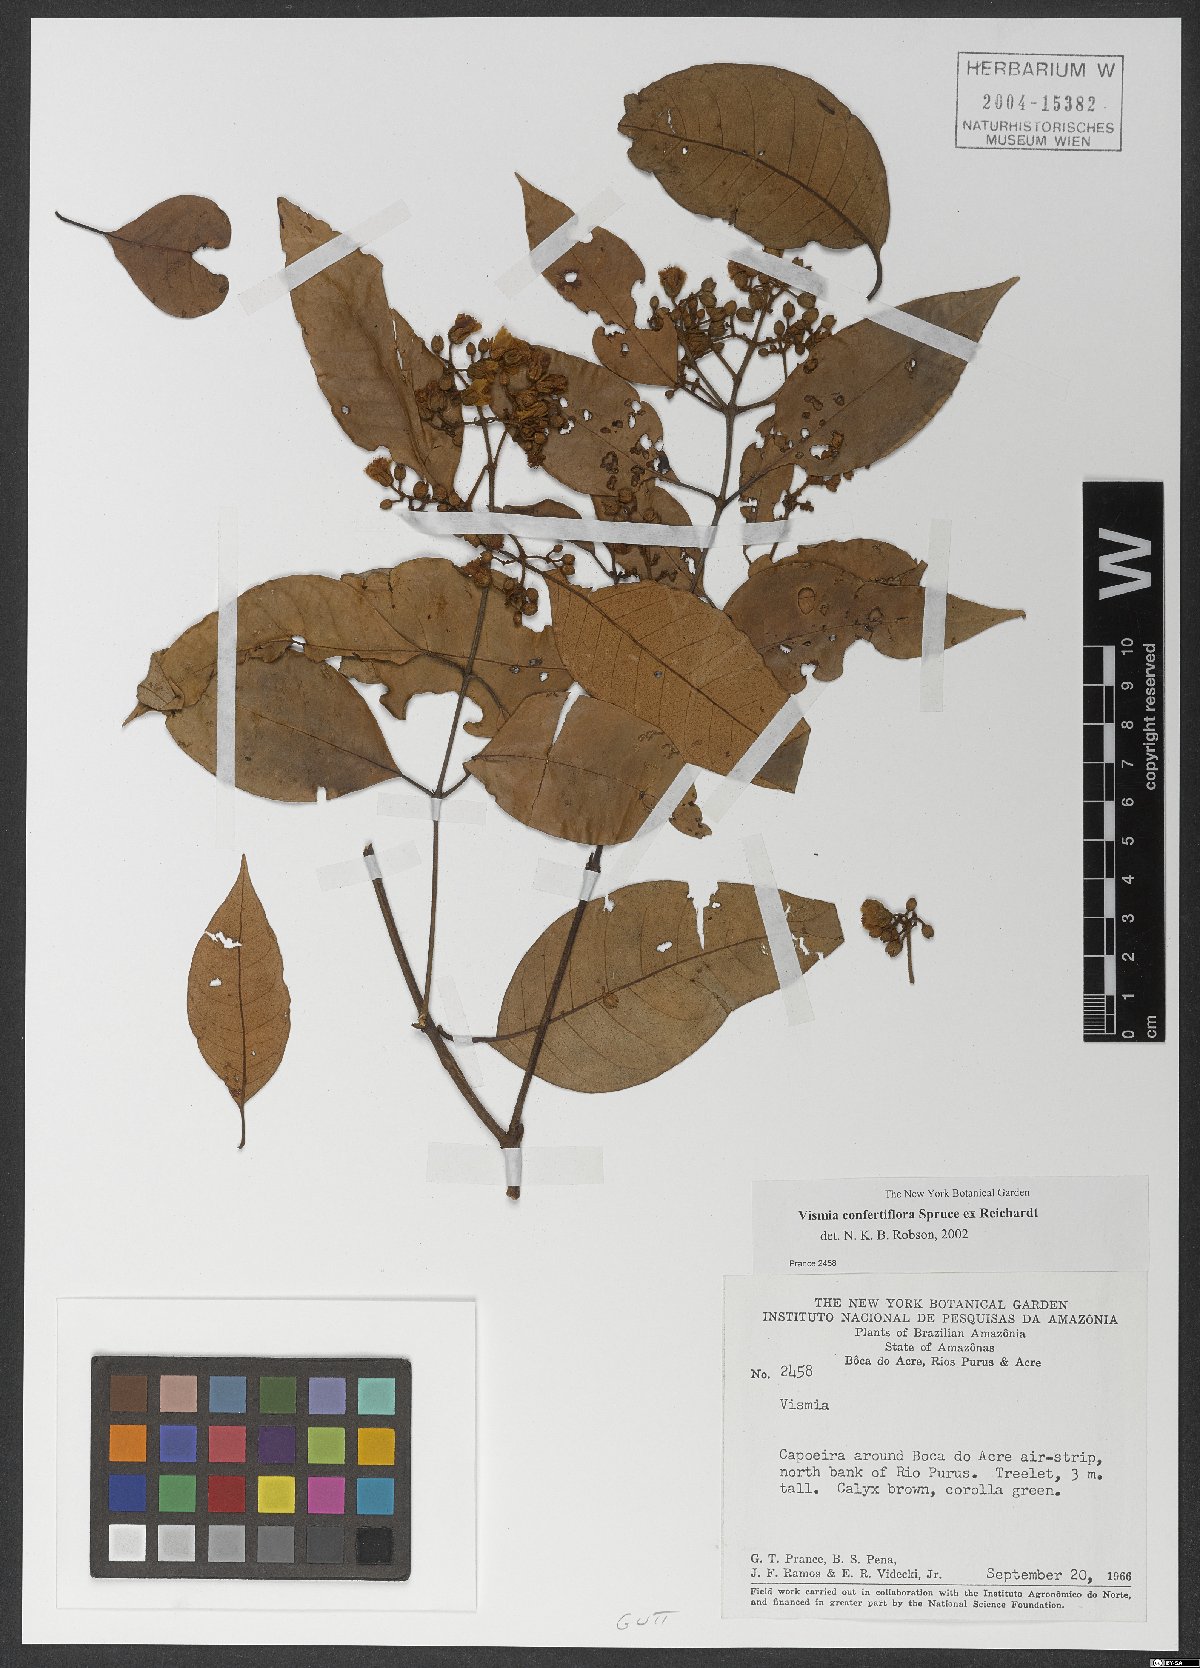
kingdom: Plantae
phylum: Tracheophyta
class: Magnoliopsida
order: Malpighiales
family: Hypericaceae
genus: Vismia
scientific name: Vismia guianensis
